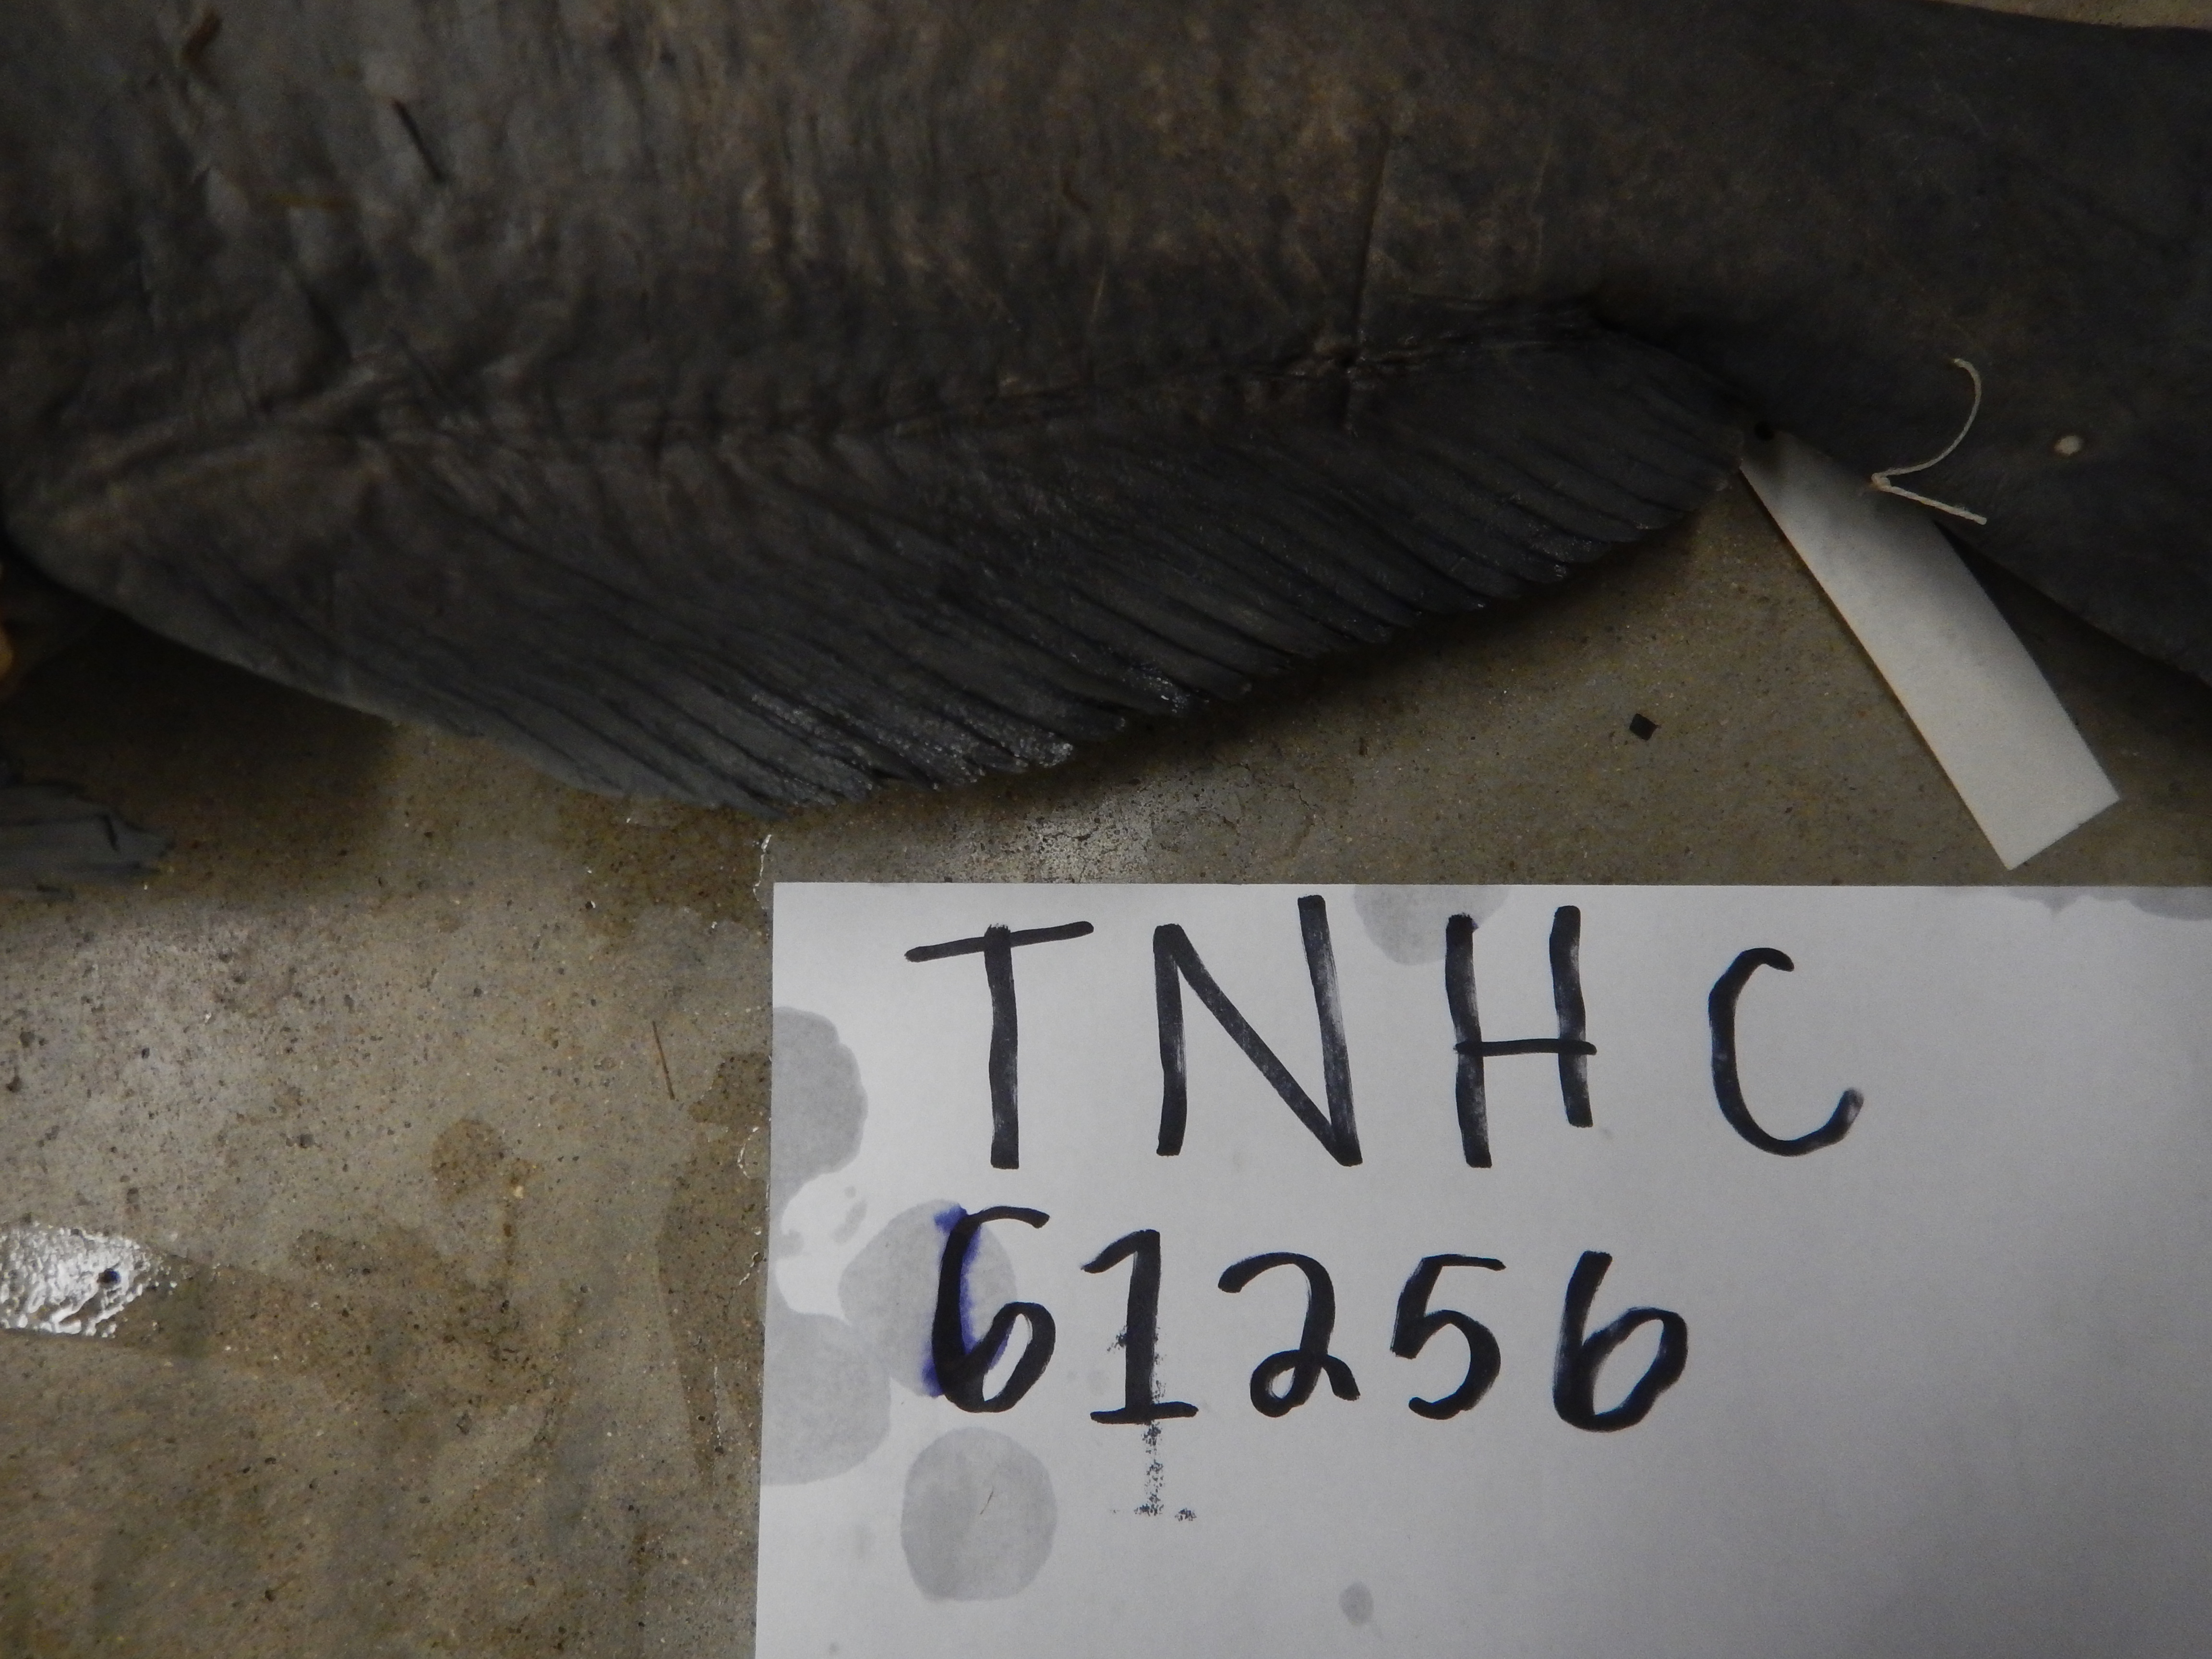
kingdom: Animalia
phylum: Chordata
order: Siluriformes
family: Ictaluridae
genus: Ictalurus
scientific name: Ictalurus furcatus
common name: Blue catfish
